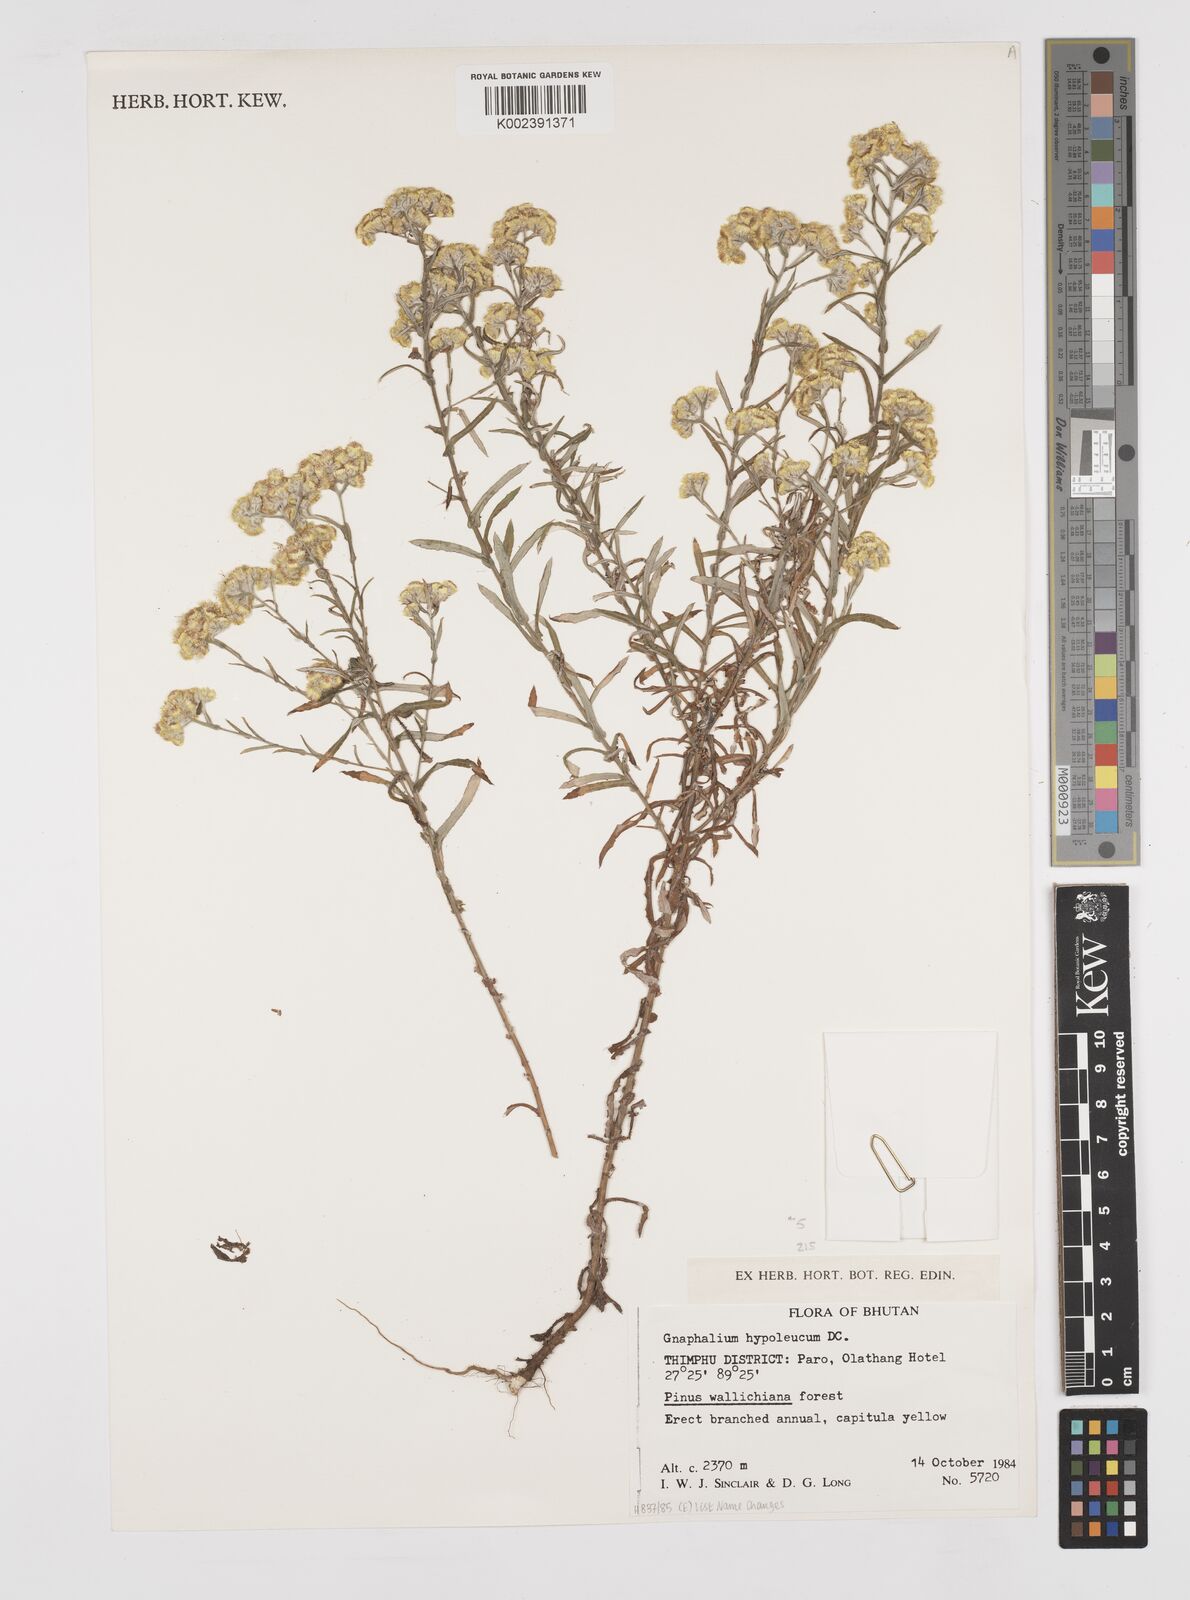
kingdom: Plantae
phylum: Tracheophyta
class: Magnoliopsida
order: Asterales
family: Asteraceae
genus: Pseudognaphalium
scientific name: Pseudognaphalium hypoleucum
